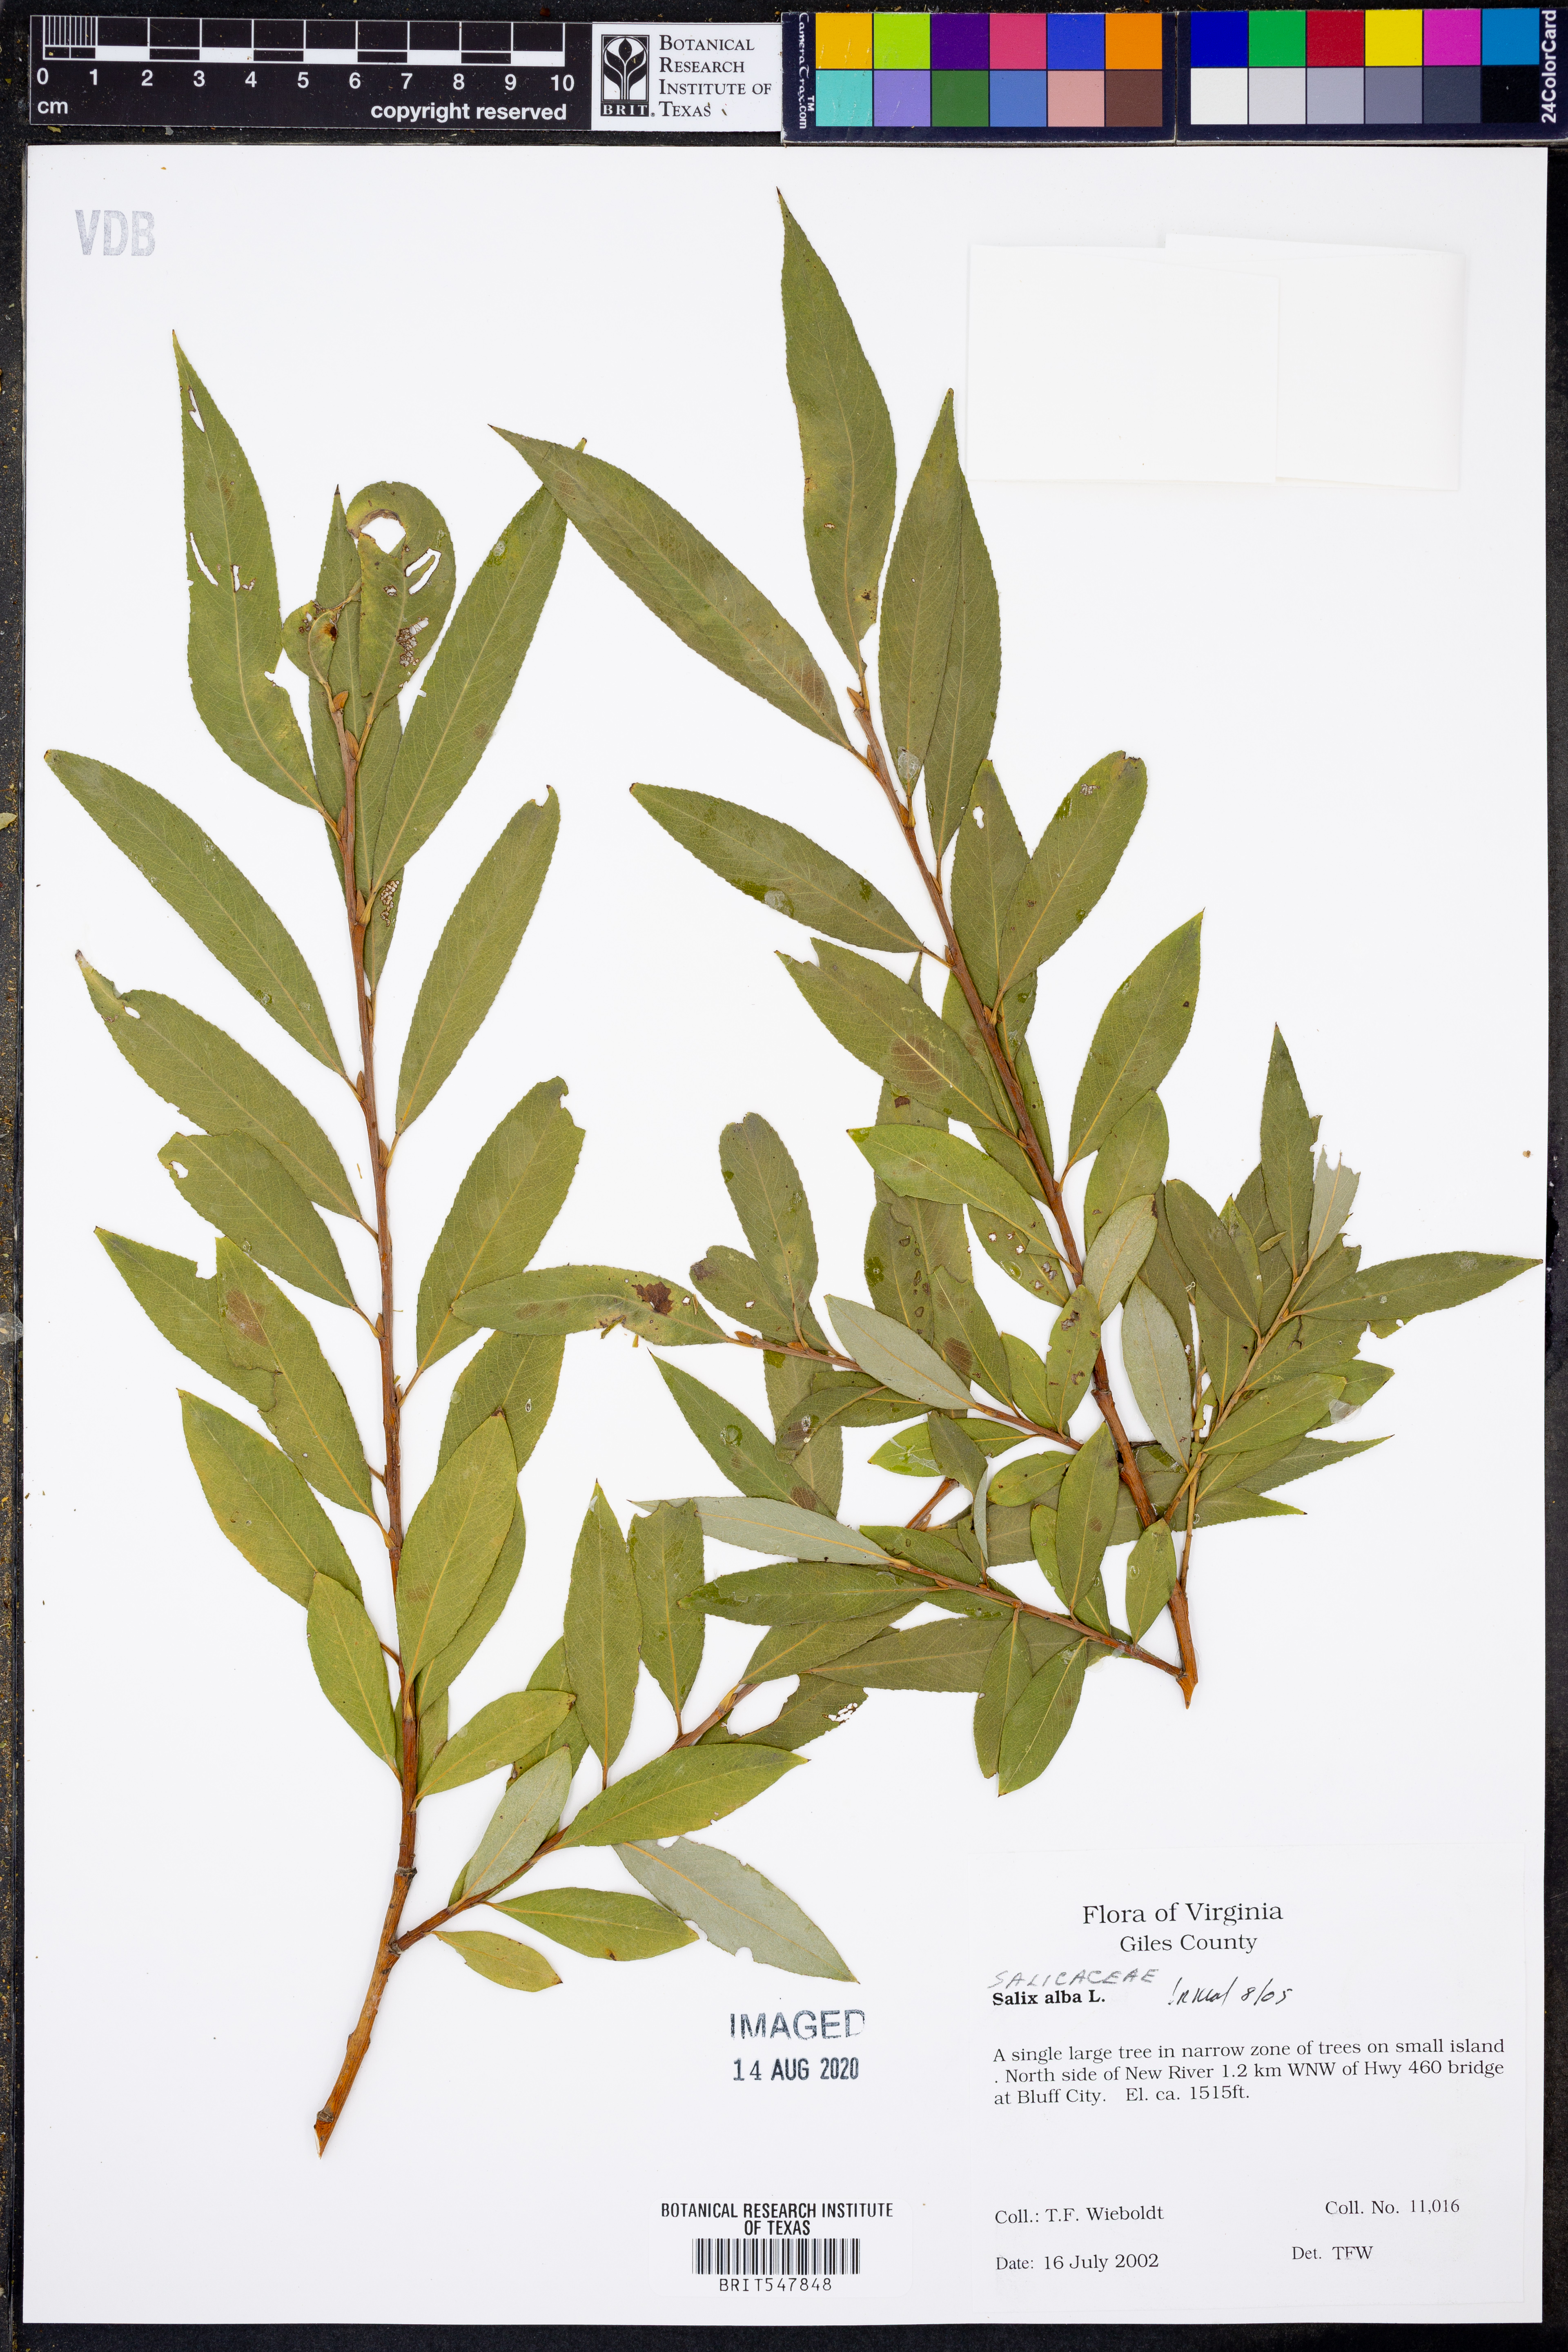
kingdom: Plantae
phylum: Tracheophyta
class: Magnoliopsida
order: Malpighiales
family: Salicaceae
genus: Salix
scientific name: Salix alba
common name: White willow
